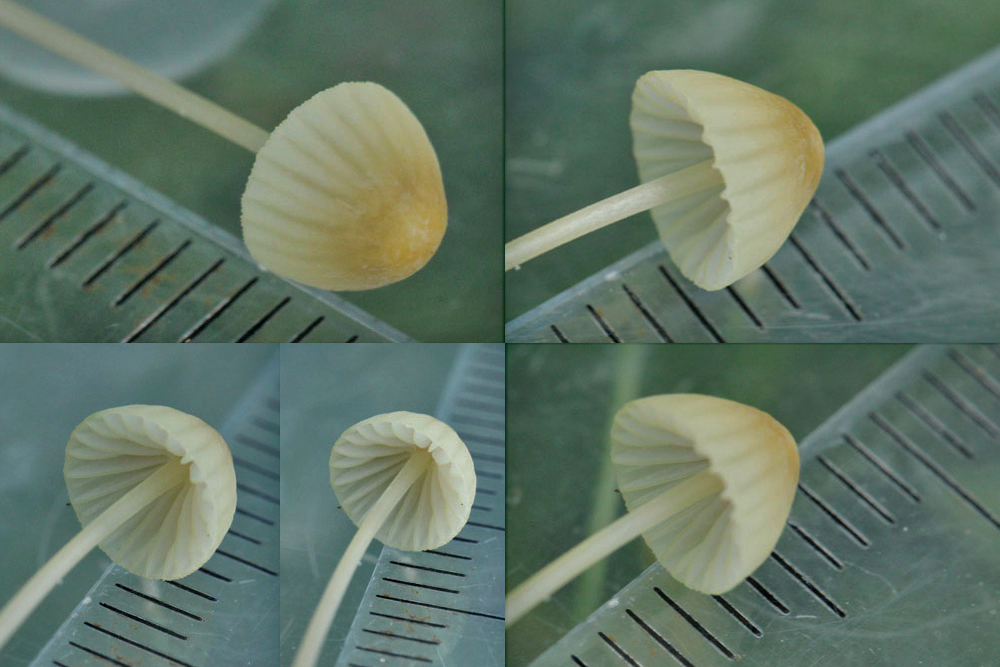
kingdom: Fungi
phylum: Basidiomycota
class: Agaricomycetes
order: Agaricales
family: Mycenaceae
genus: Mycena
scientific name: Mycena citrinomarginata
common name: gulægget huesvamp
